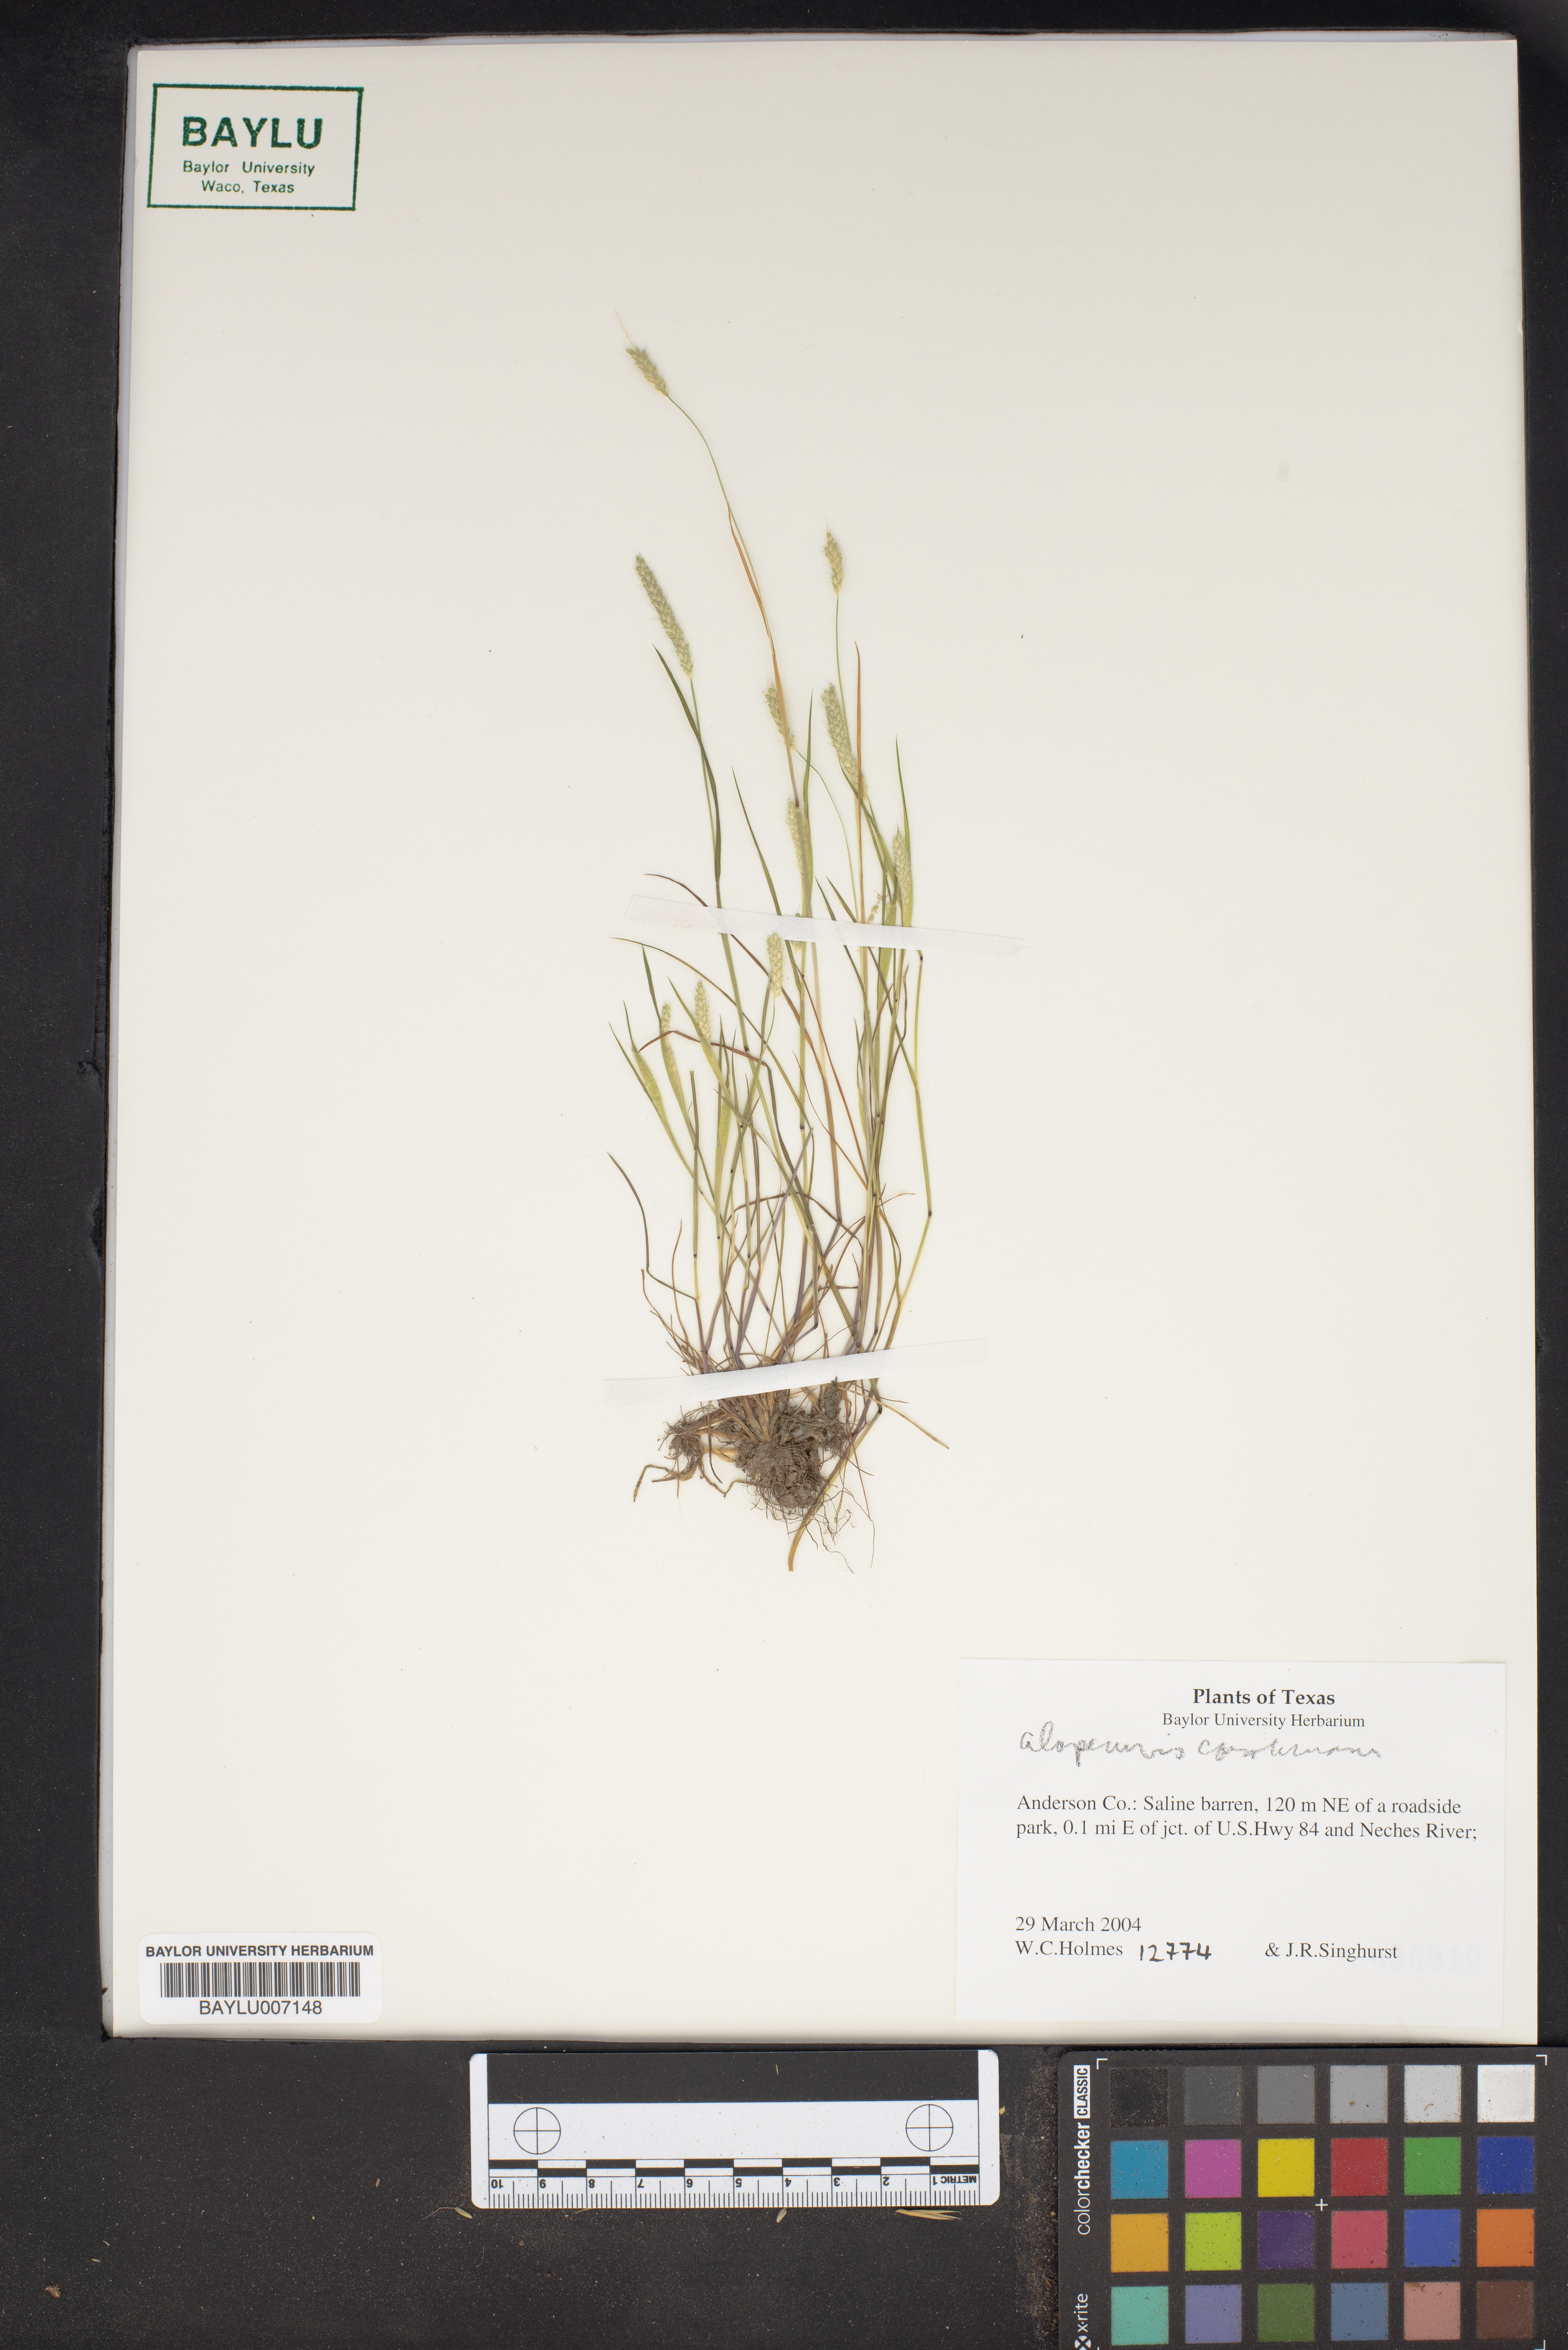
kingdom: Plantae
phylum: Tracheophyta
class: Liliopsida
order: Poales
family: Poaceae
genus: Alopecurus
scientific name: Alopecurus carolinianus
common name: Tufted foxtail
